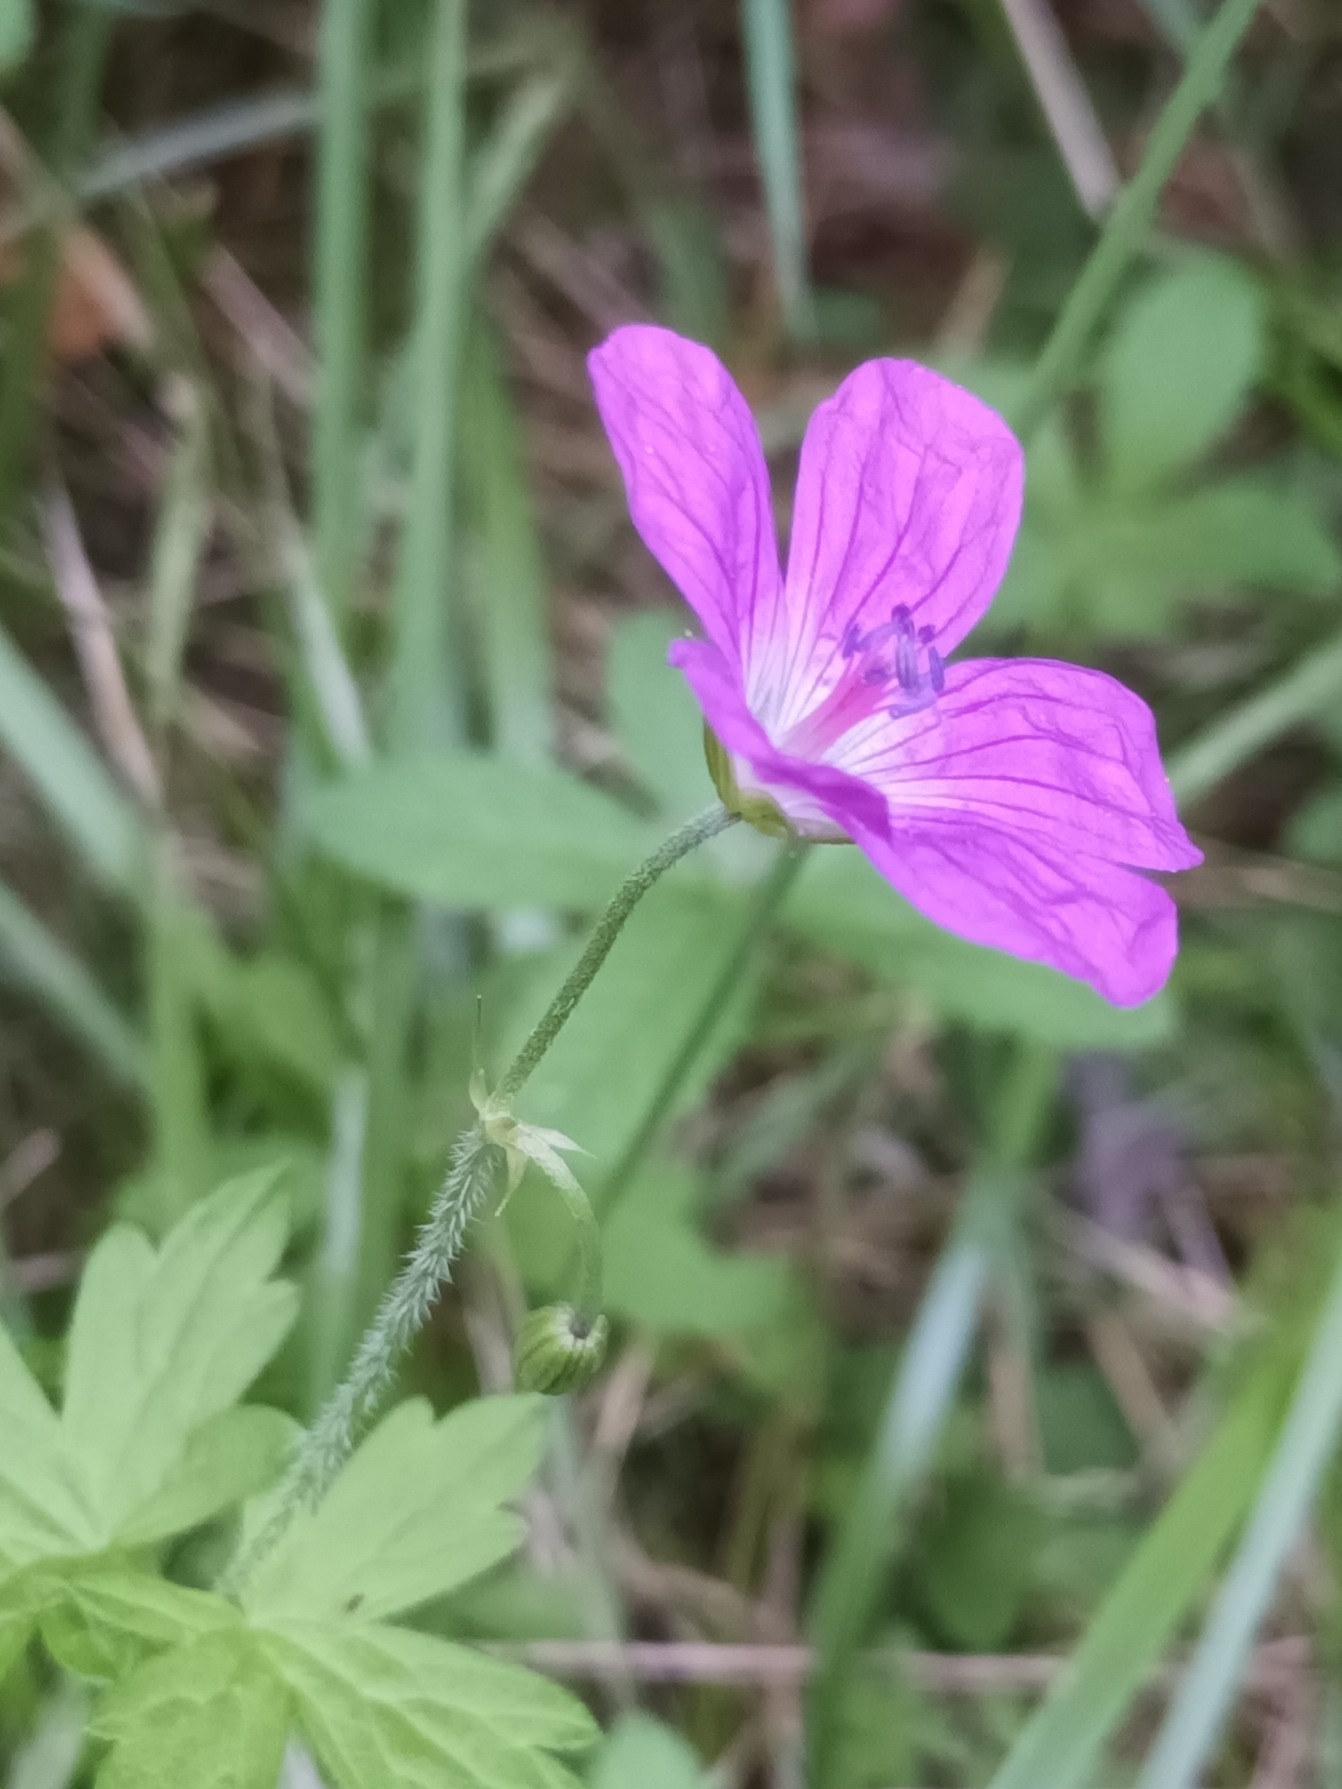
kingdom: Plantae
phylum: Tracheophyta
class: Magnoliopsida
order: Geraniales
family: Geraniaceae
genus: Geranium
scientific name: Geranium palustre
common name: Kær-storkenæb
